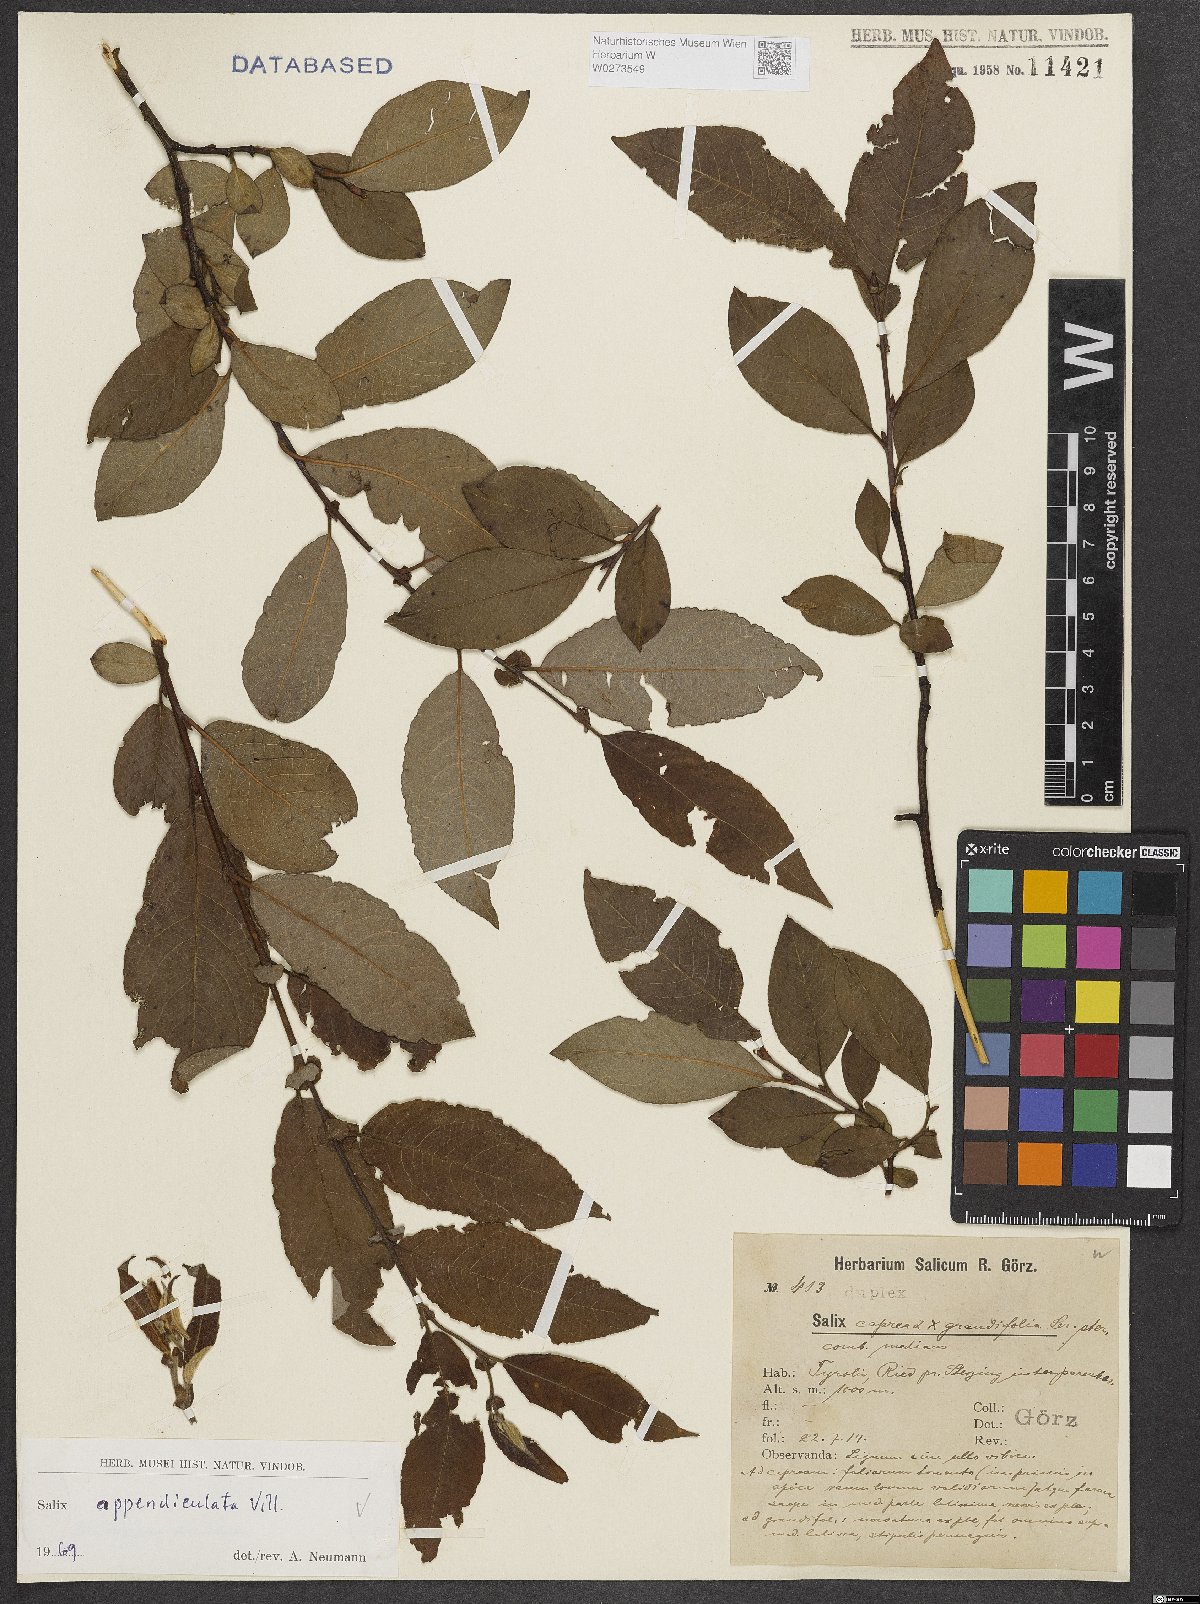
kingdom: Plantae
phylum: Tracheophyta
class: Magnoliopsida
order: Malpighiales
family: Salicaceae
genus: Salix
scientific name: Salix appendiculata
